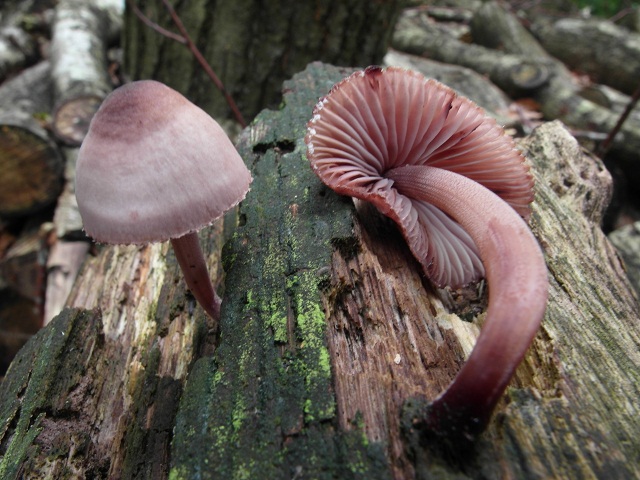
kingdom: Fungi
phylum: Basidiomycota
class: Agaricomycetes
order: Agaricales
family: Mycenaceae
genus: Mycena
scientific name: Mycena haematopus
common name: blødende huesvamp
